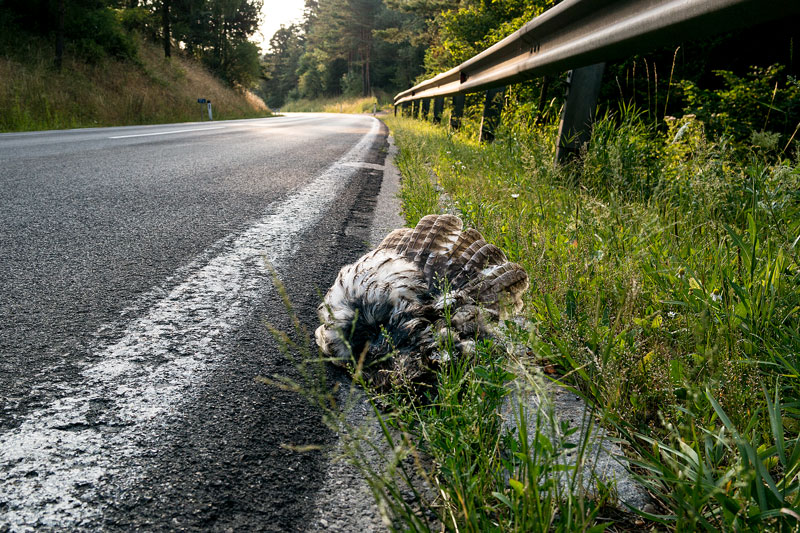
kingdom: Animalia
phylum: Chordata
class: Aves
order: Strigiformes
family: Strigidae
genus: Strix
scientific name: Strix aluco
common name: Tawny owl
